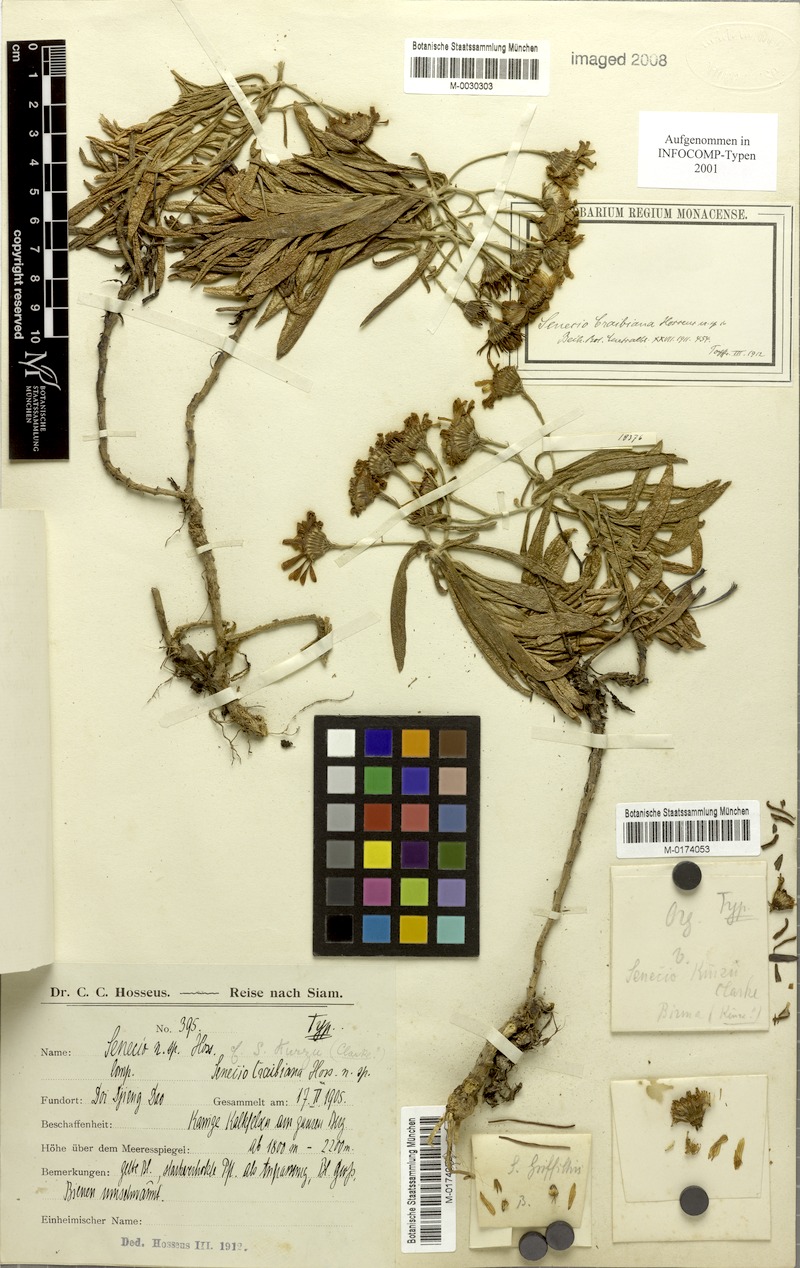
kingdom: Plantae
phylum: Tracheophyta
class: Magnoliopsida
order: Asterales
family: Asteraceae
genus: Senecio
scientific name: Senecio griffithii
